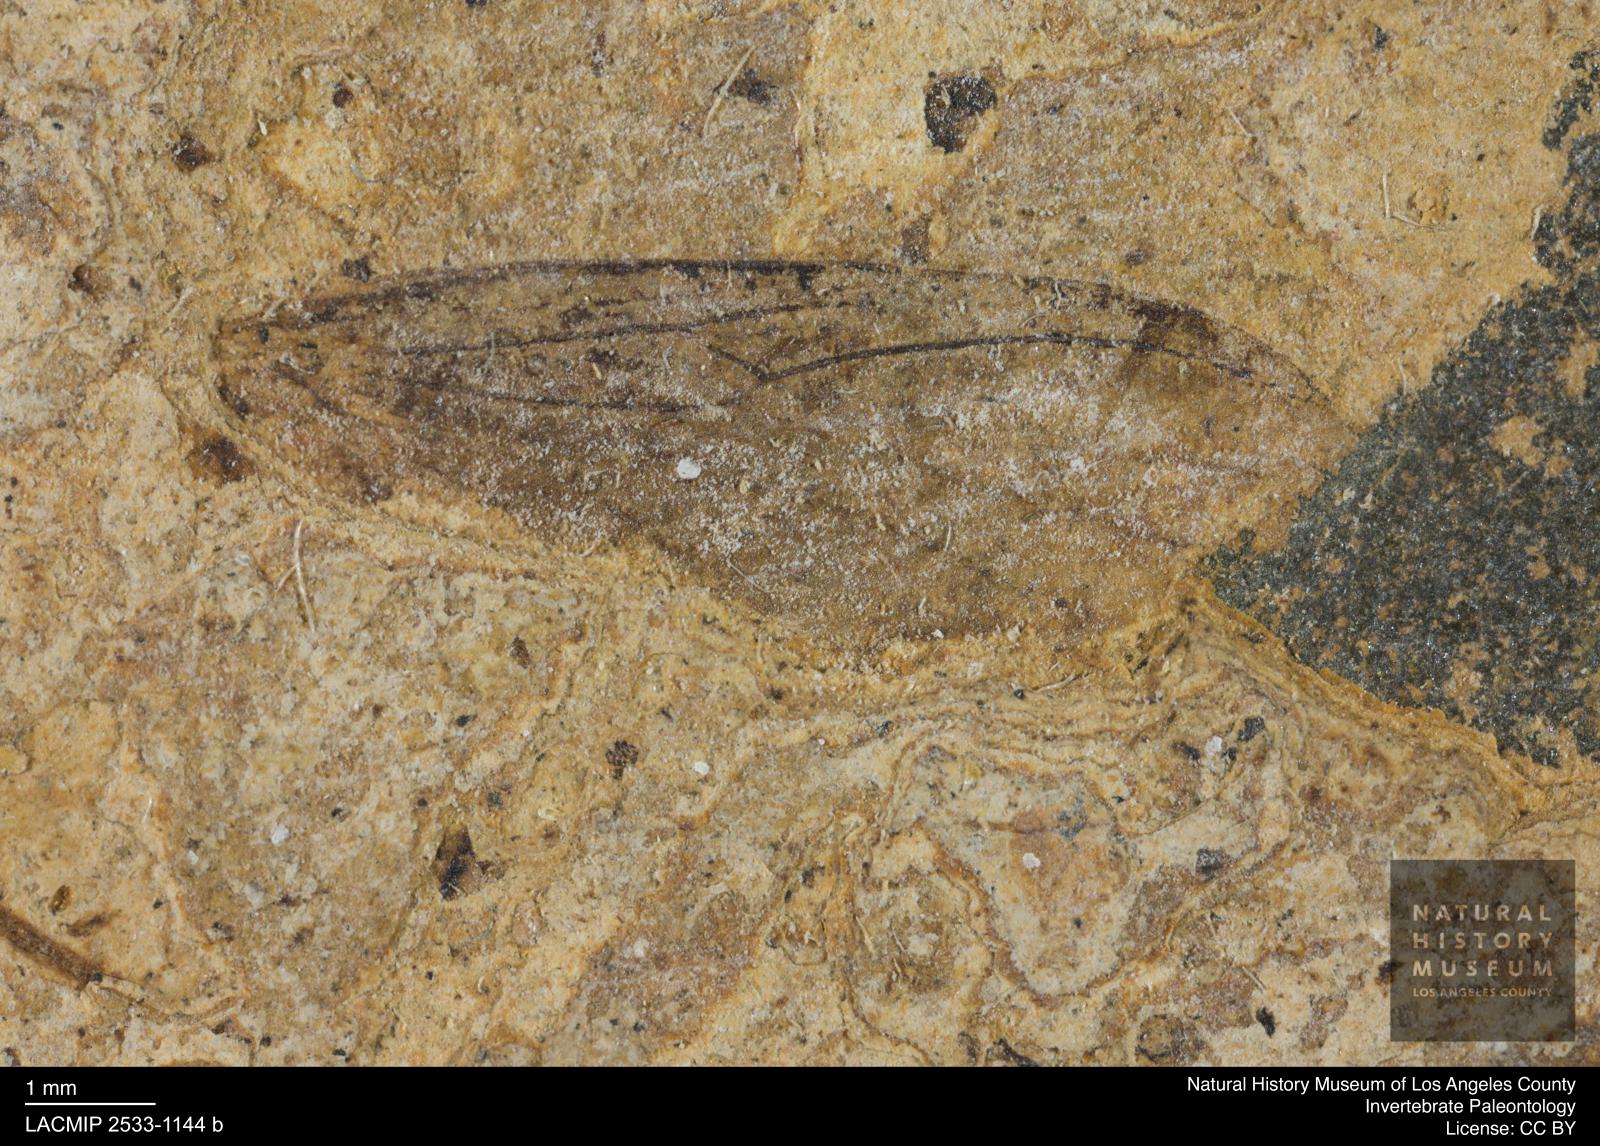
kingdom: Animalia
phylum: Arthropoda
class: Insecta
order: Diptera
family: Bibionidae
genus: Bibio
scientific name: Bibio mimas
